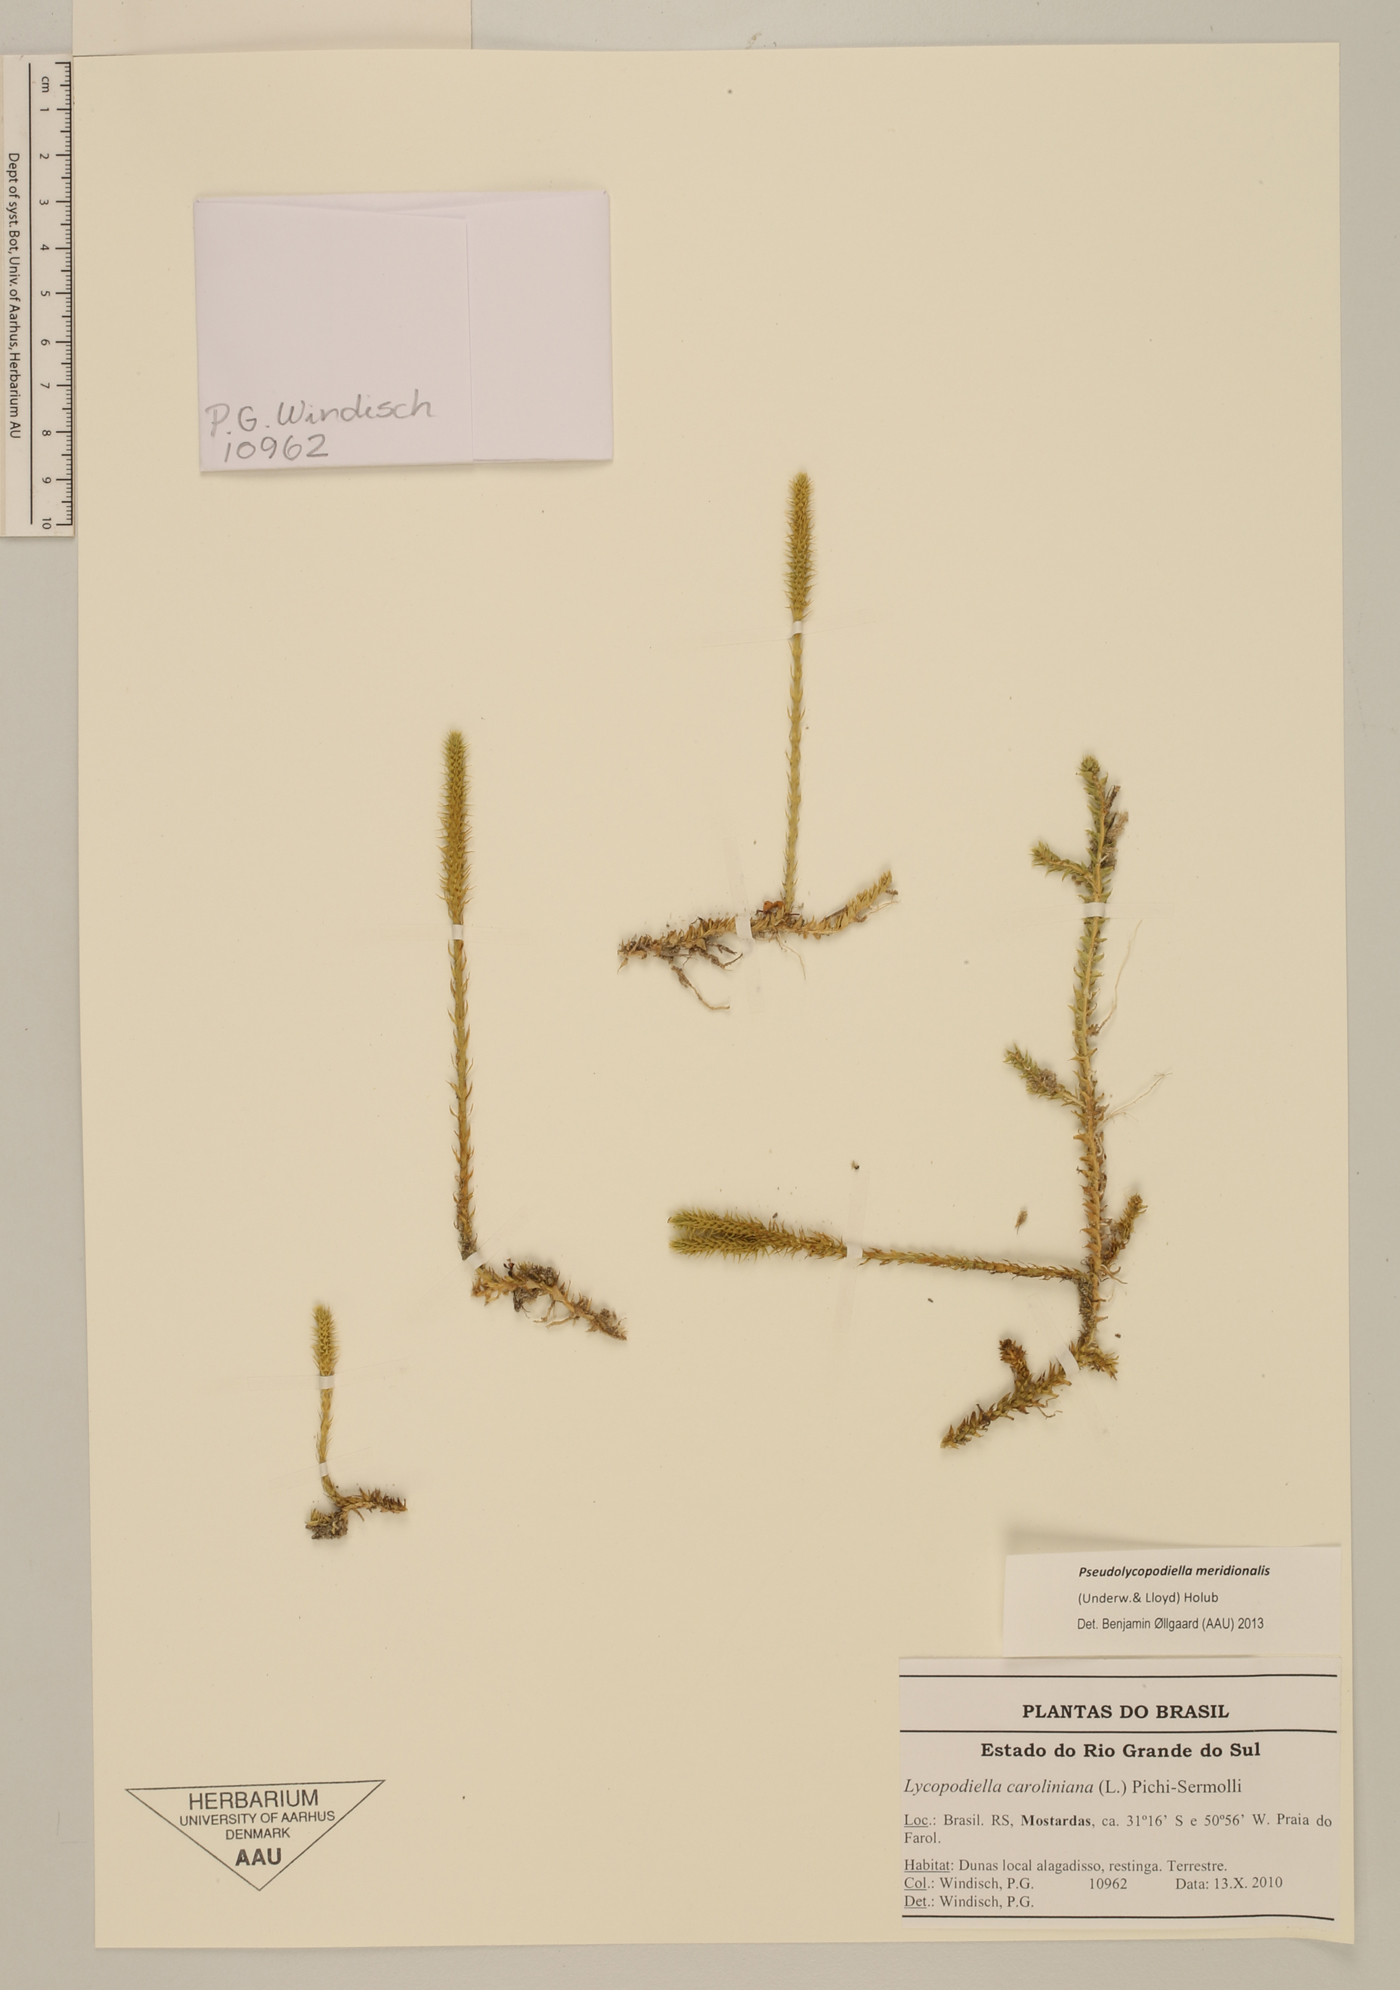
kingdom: Plantae
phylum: Tracheophyta
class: Lycopodiopsida
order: Lycopodiales
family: Lycopodiaceae
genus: Pseudolycopodiella
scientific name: Pseudolycopodiella meridionalis
